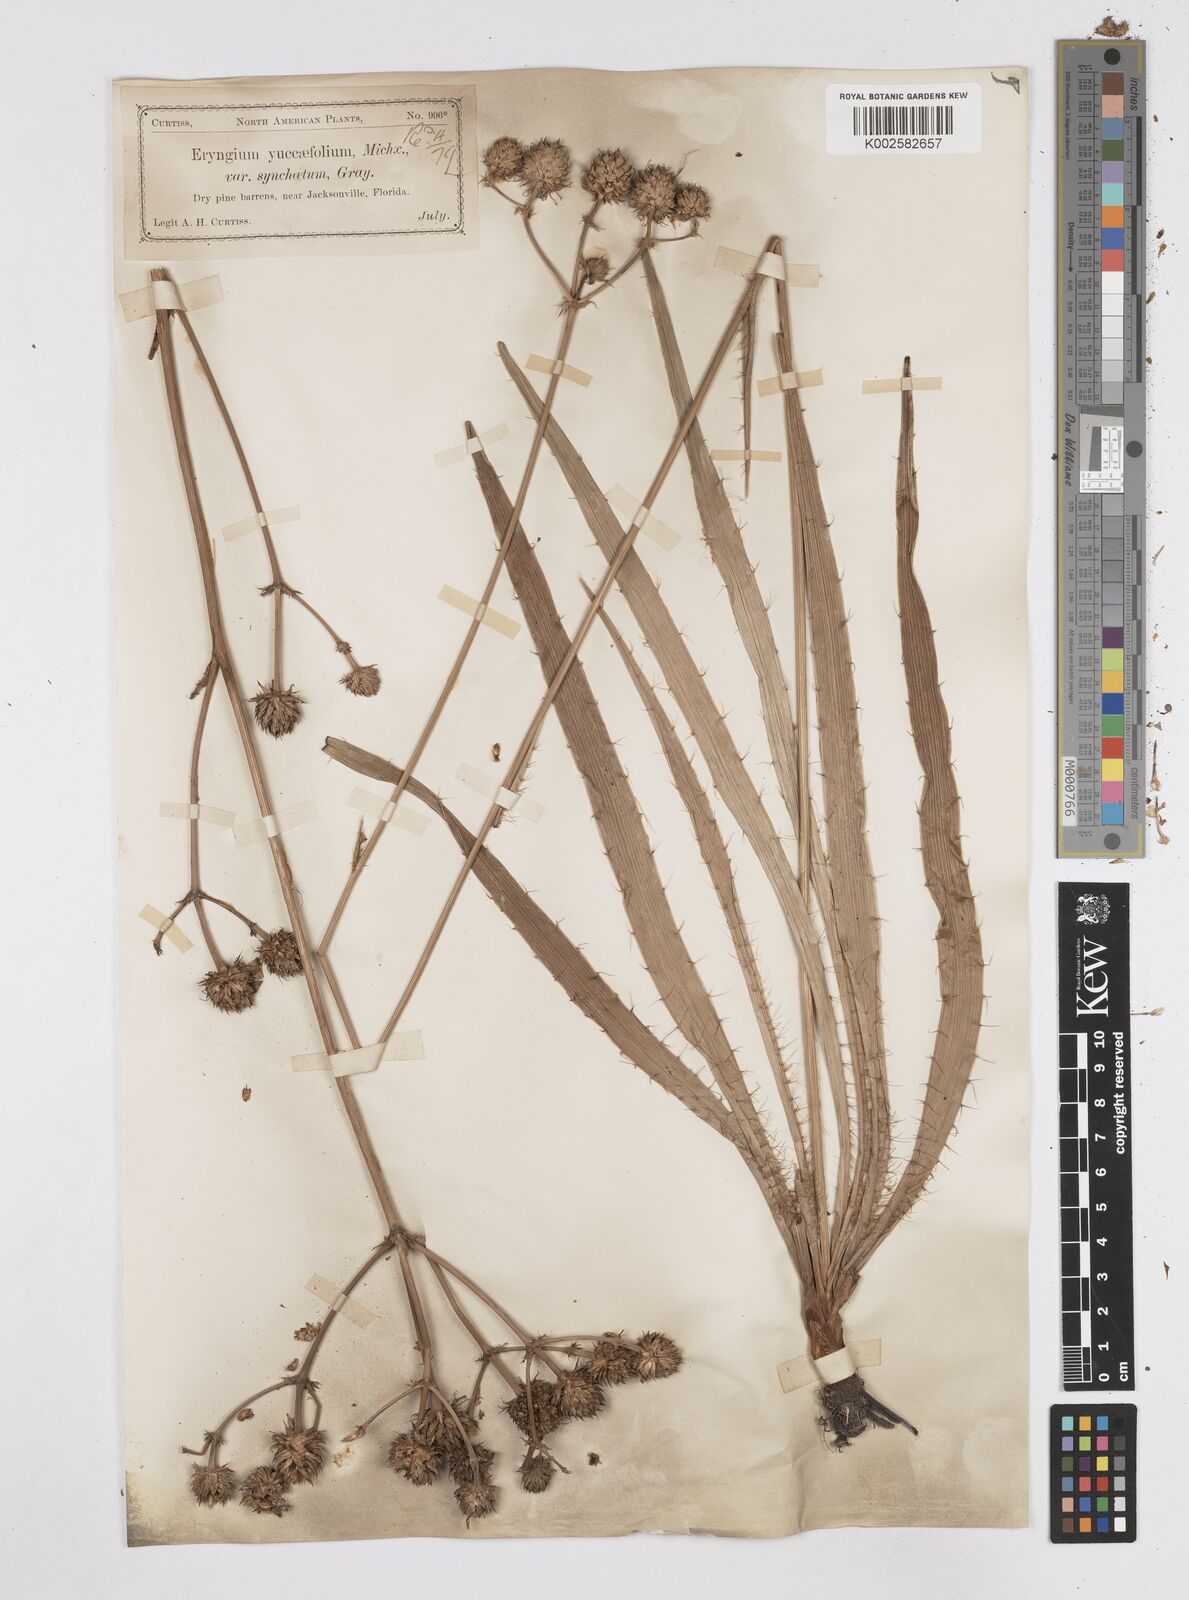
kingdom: Plantae
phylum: Tracheophyta
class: Magnoliopsida
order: Apiales
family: Apiaceae
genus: Eryngium
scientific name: Eryngium yuccifolium
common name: Button eryngo
